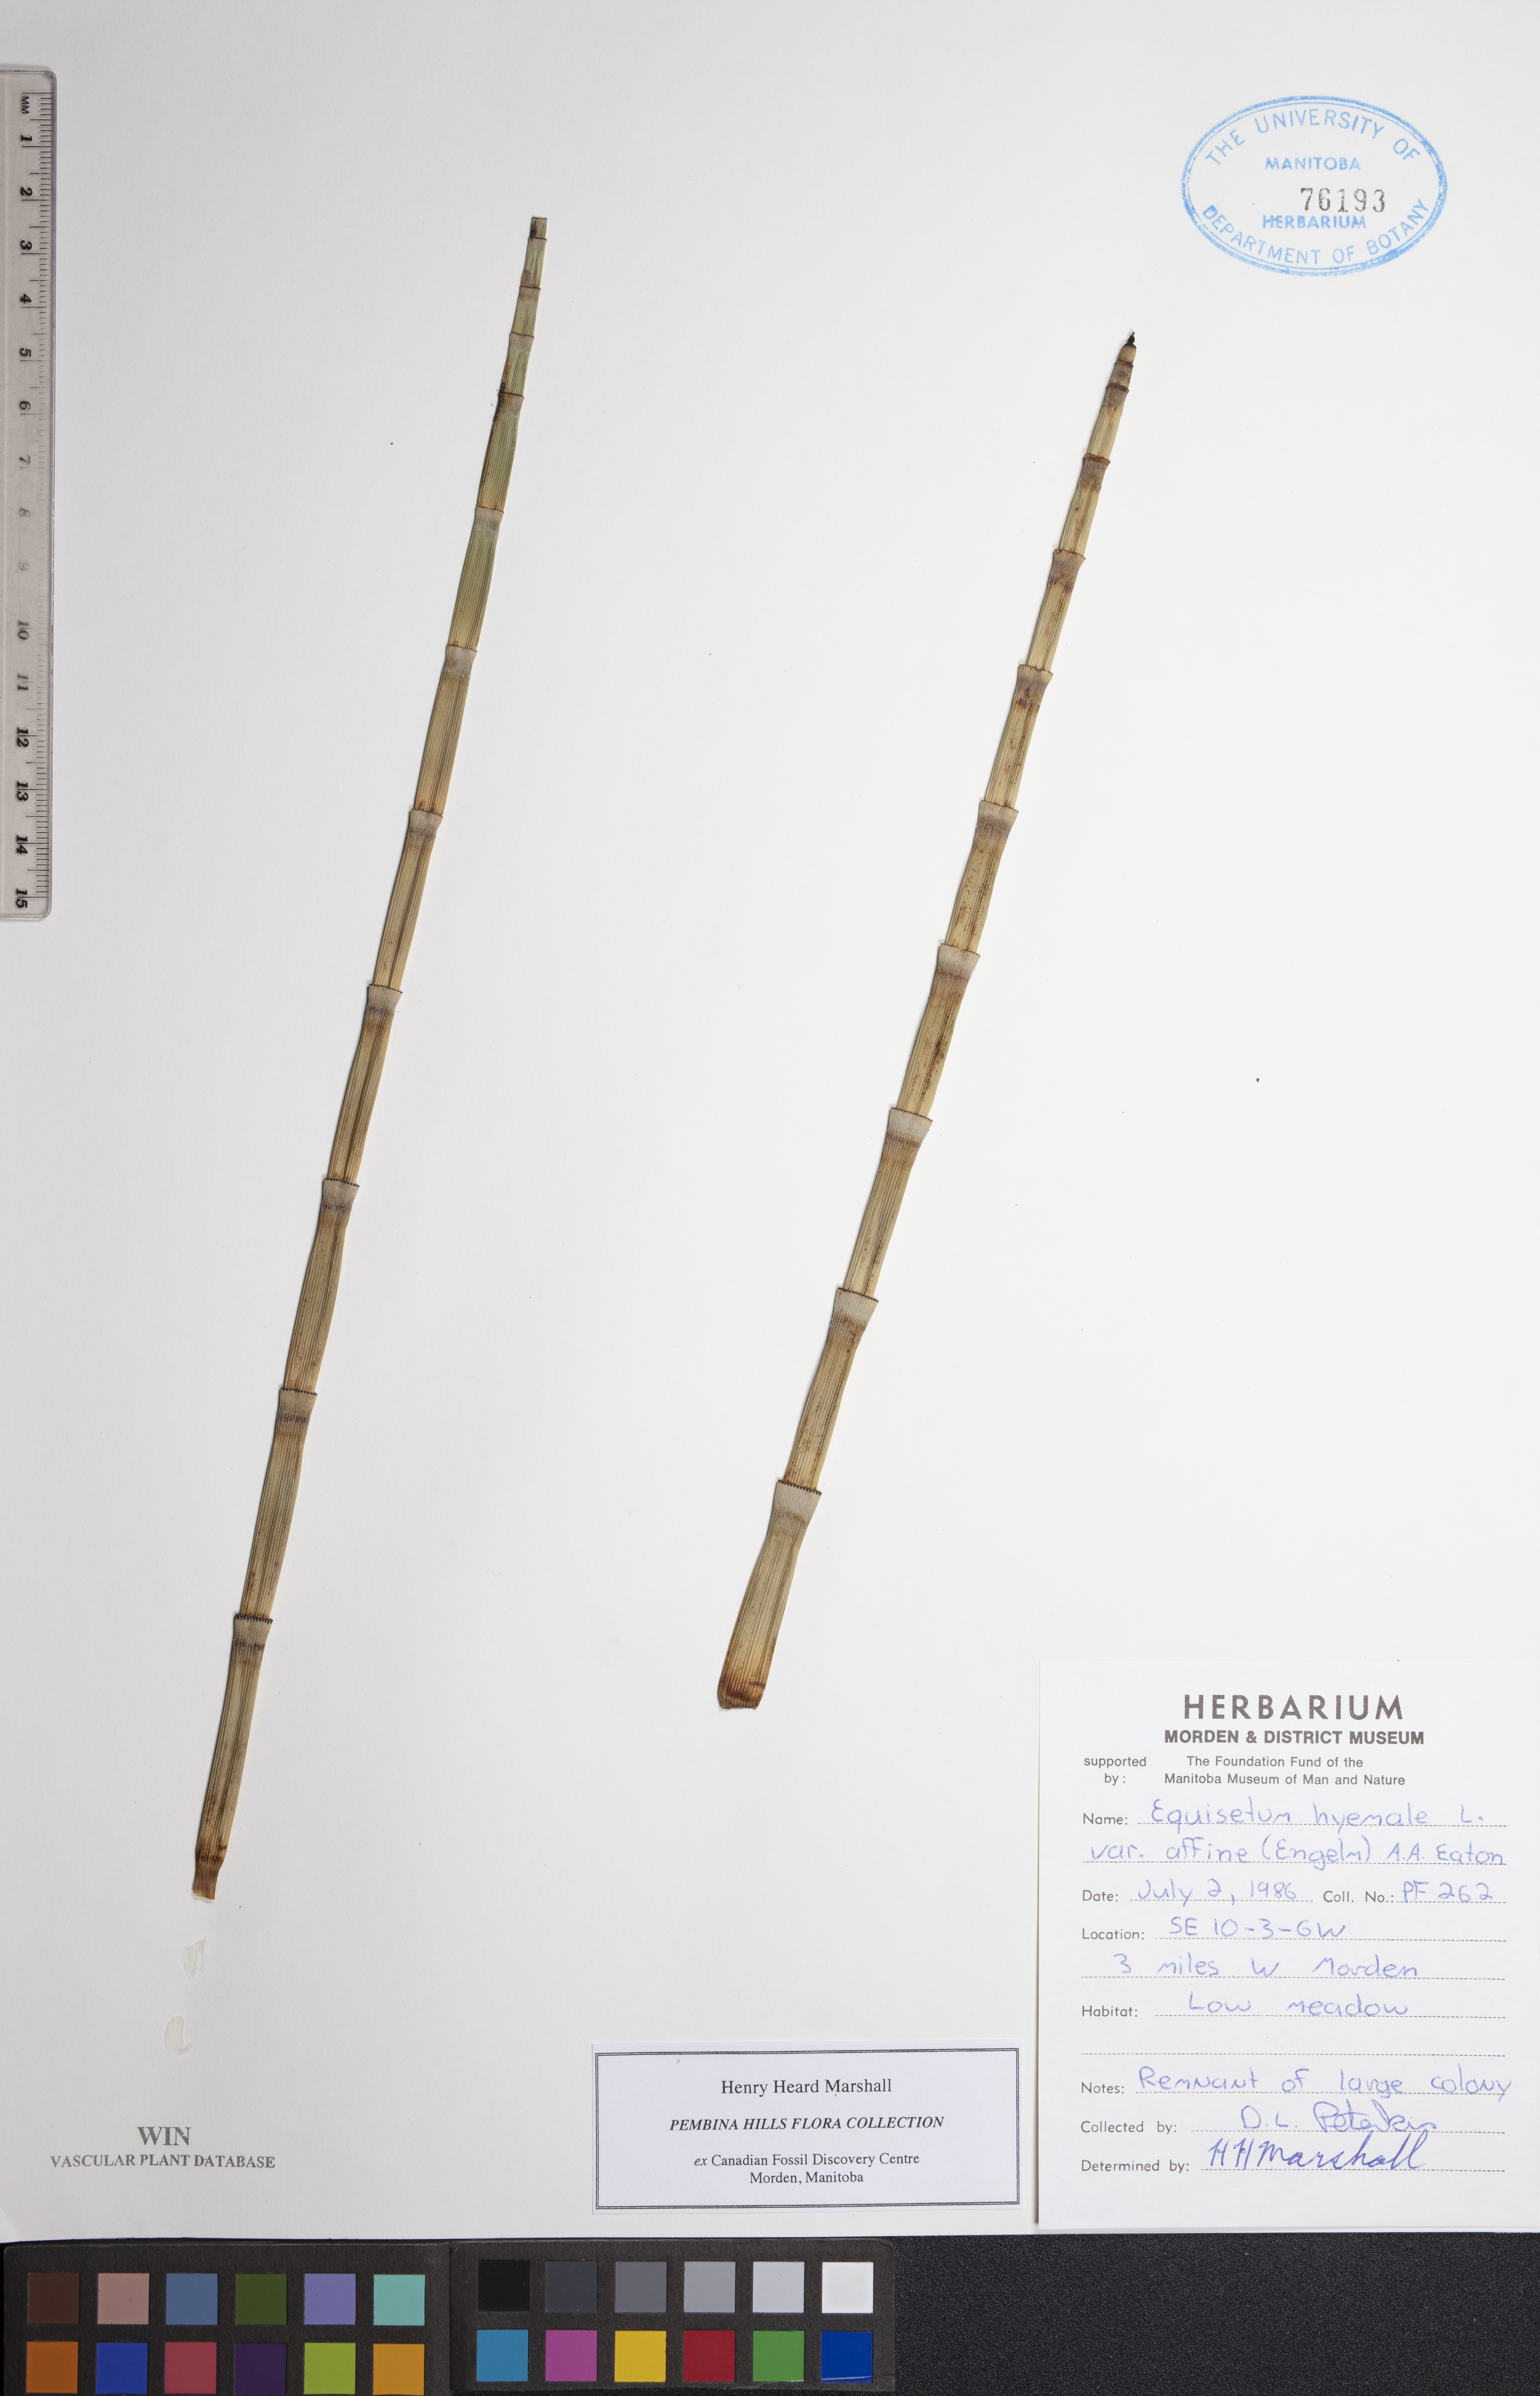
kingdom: Plantae
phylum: Tracheophyta
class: Polypodiopsida
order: Equisetales
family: Equisetaceae
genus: Equisetum
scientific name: Equisetum hyemale
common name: Rough horsetail
